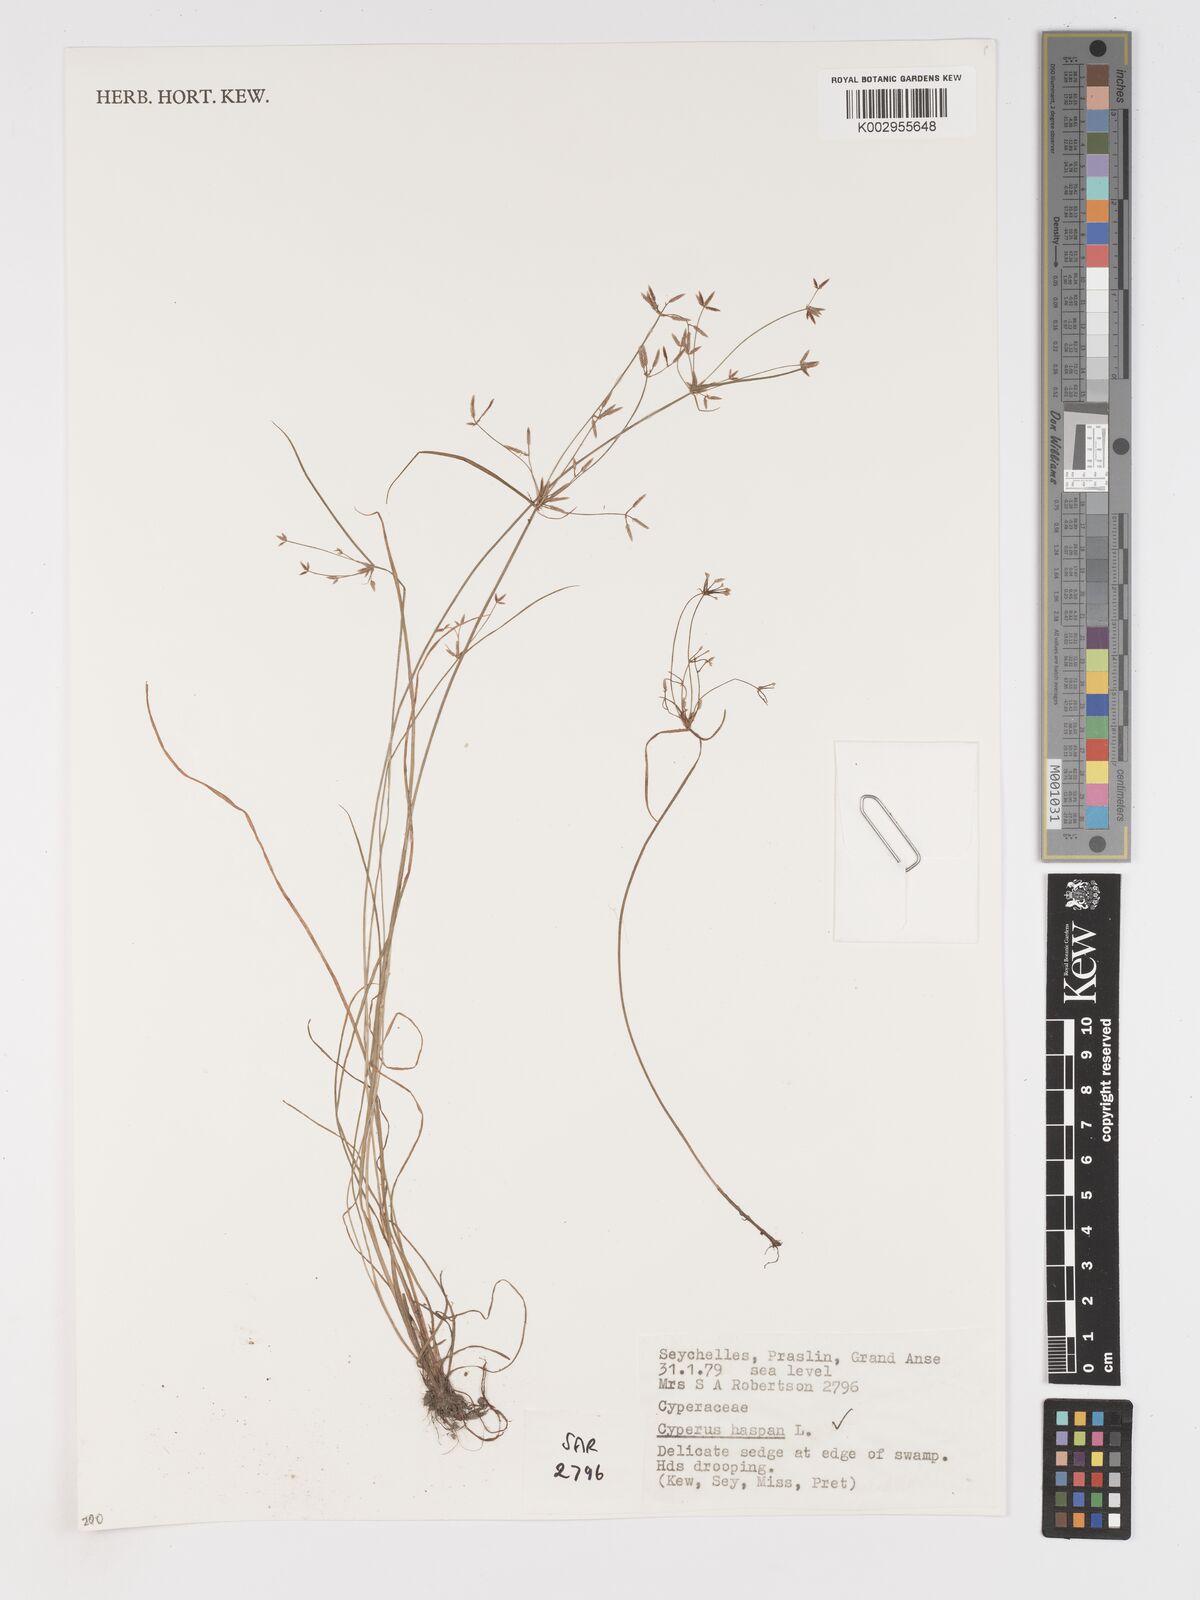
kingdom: Plantae
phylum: Tracheophyta
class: Liliopsida
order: Poales
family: Cyperaceae
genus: Cyperus
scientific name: Cyperus haspan
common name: Haspan flatsedge
